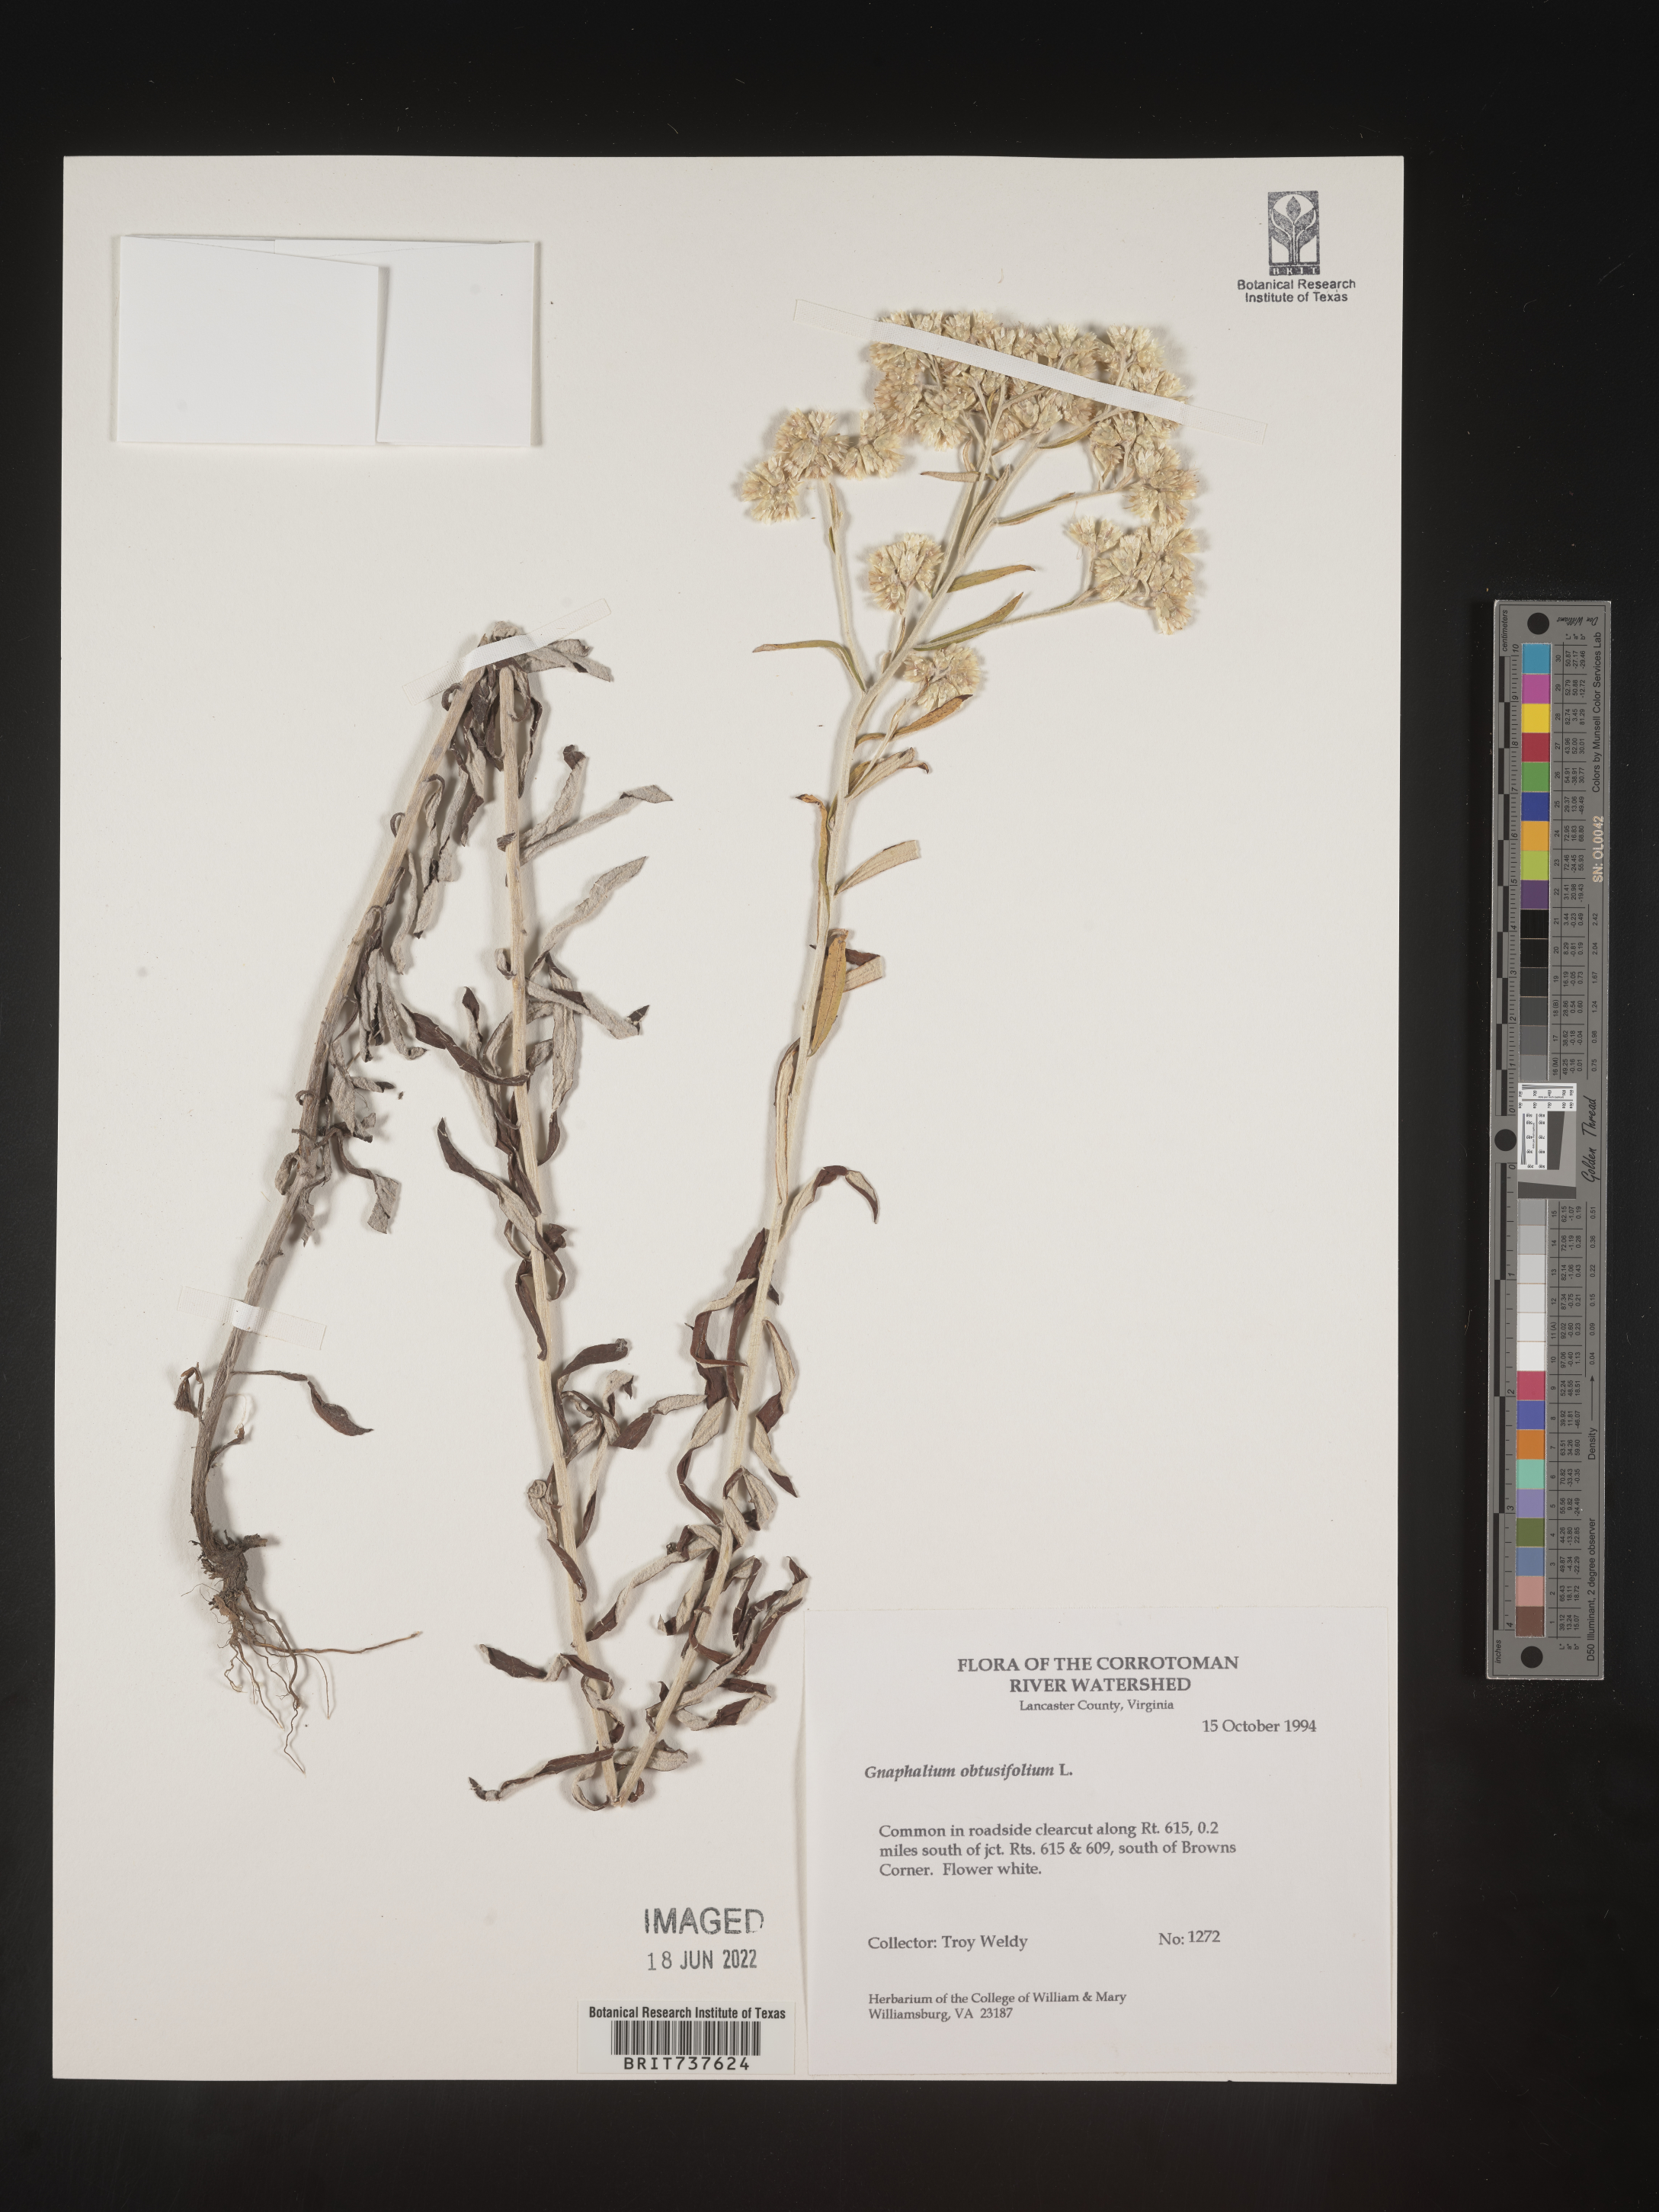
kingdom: Plantae
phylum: Tracheophyta
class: Magnoliopsida
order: Asterales
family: Asteraceae
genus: Pseudognaphalium
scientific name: Pseudognaphalium obtusifolium
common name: Eastern rabbit-tobacco
